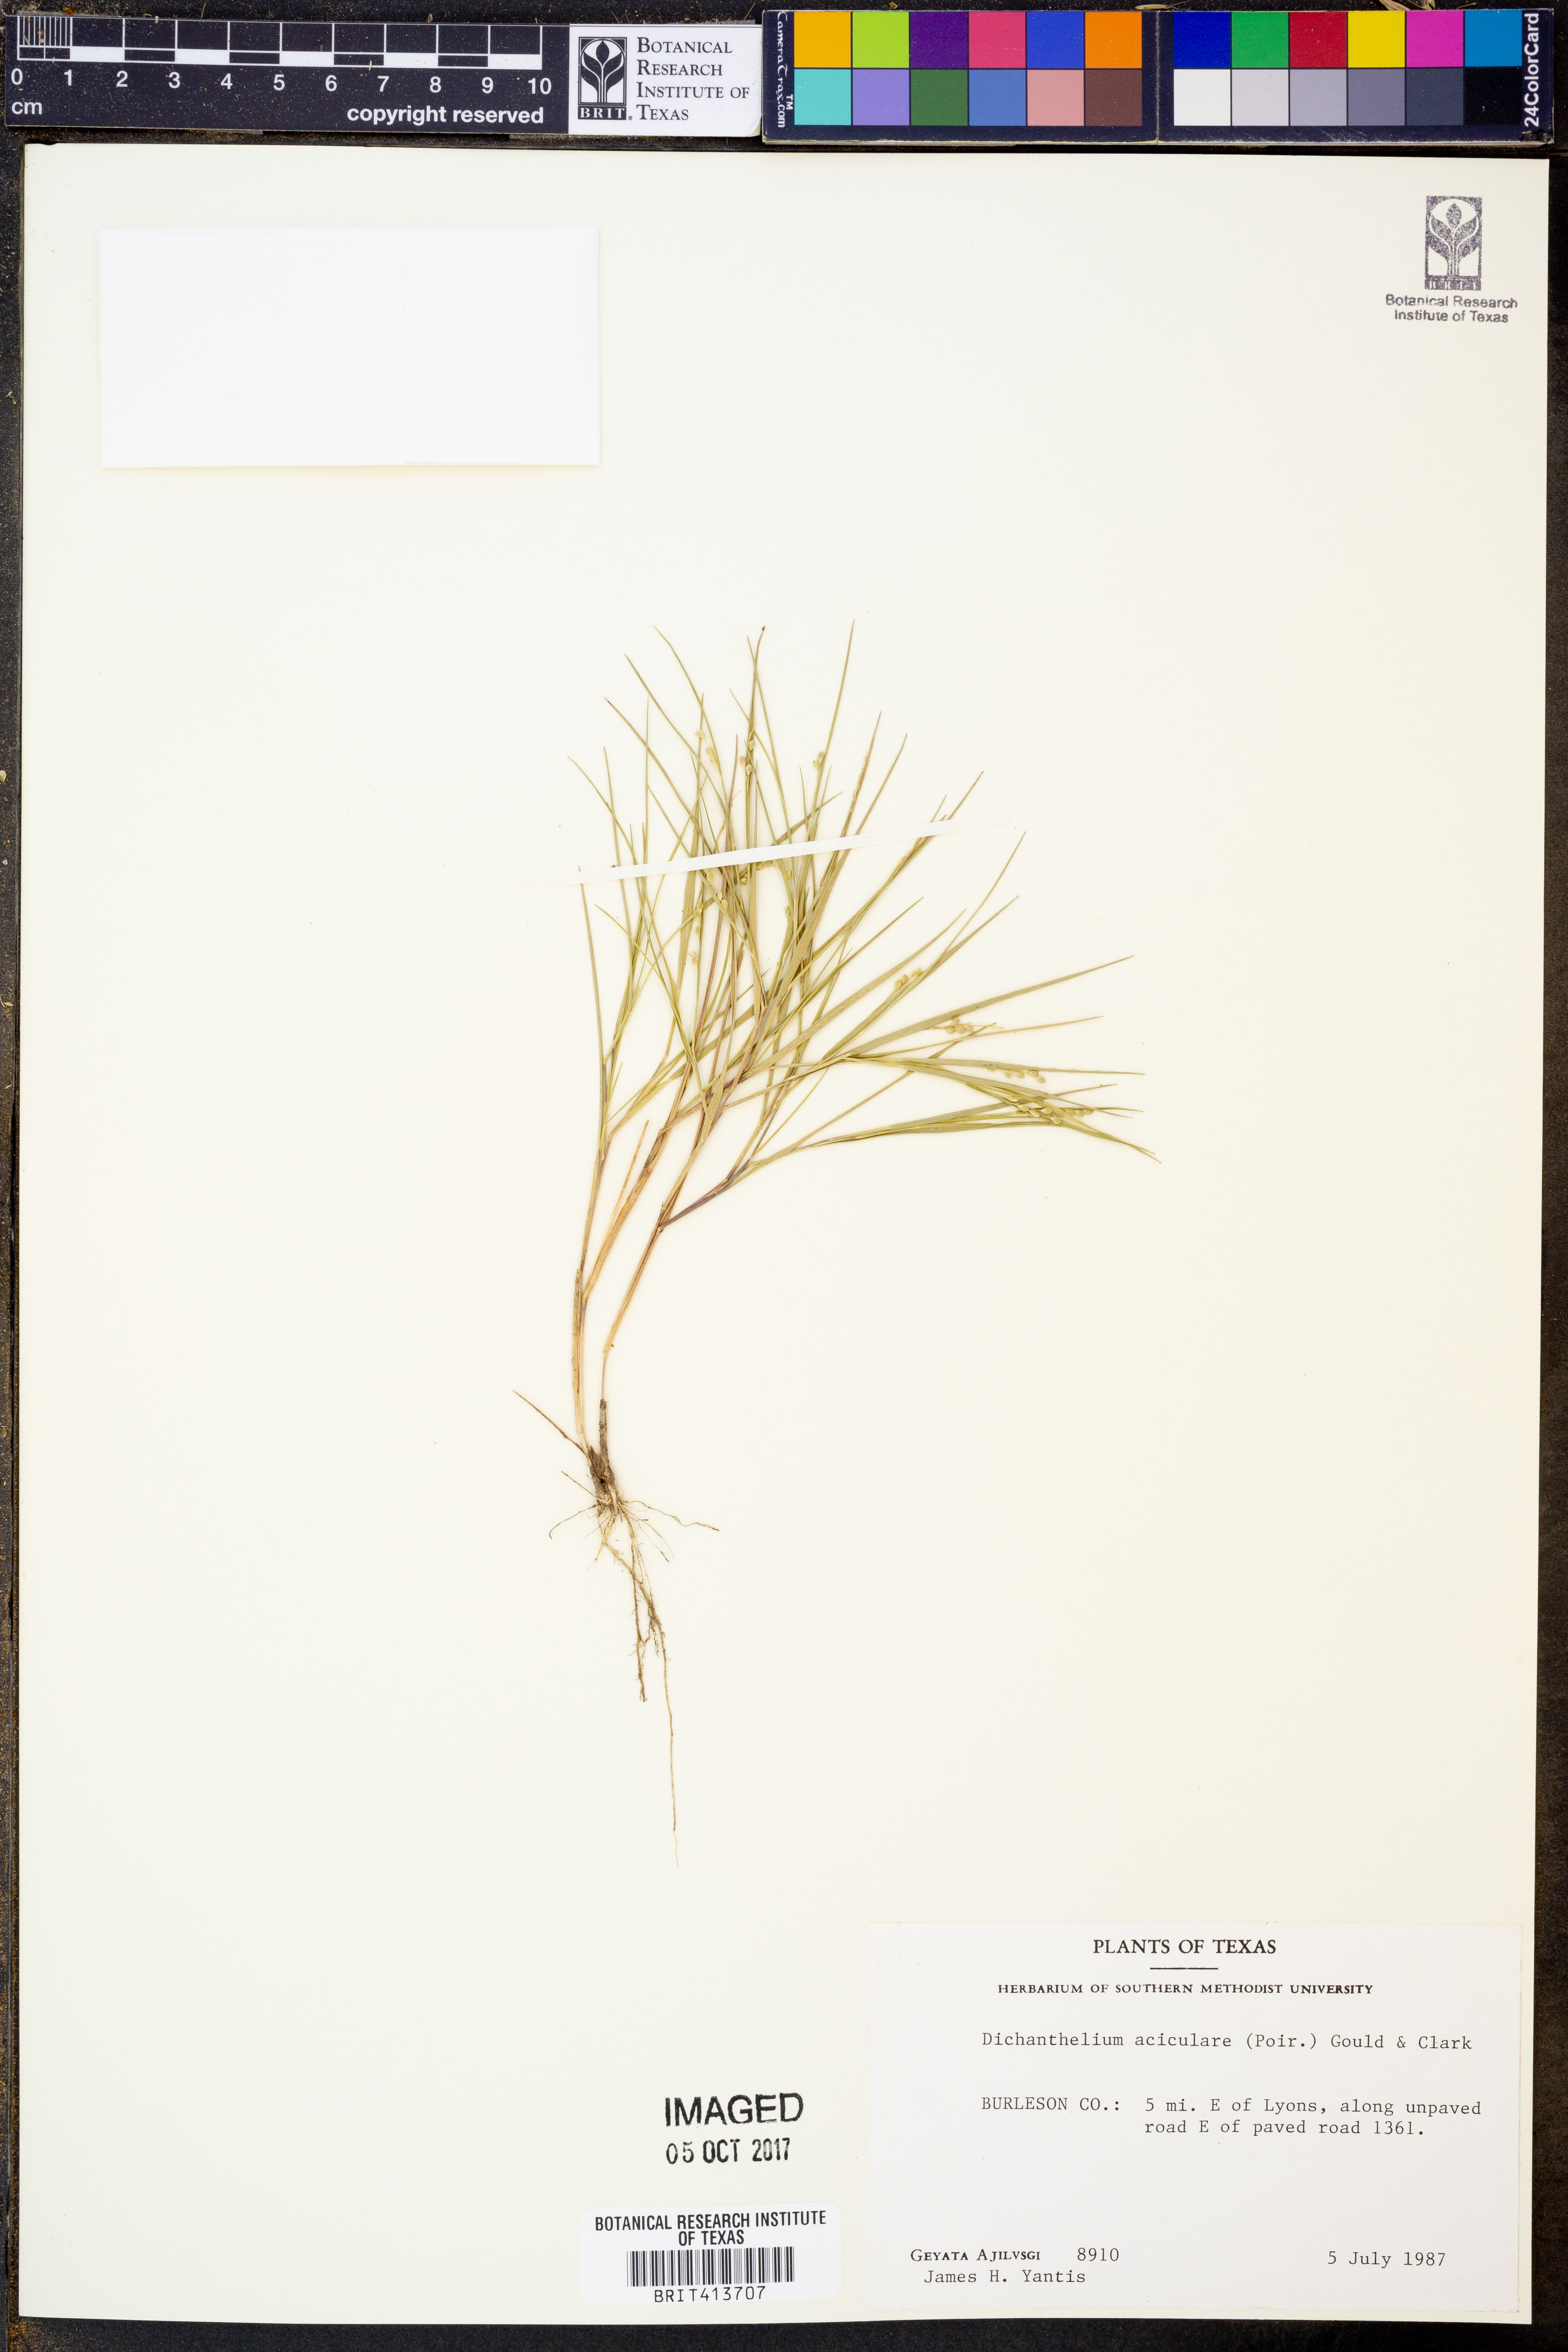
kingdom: Plantae
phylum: Tracheophyta
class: Liliopsida
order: Poales
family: Poaceae
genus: Dichanthelium
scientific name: Dichanthelium aciculare
